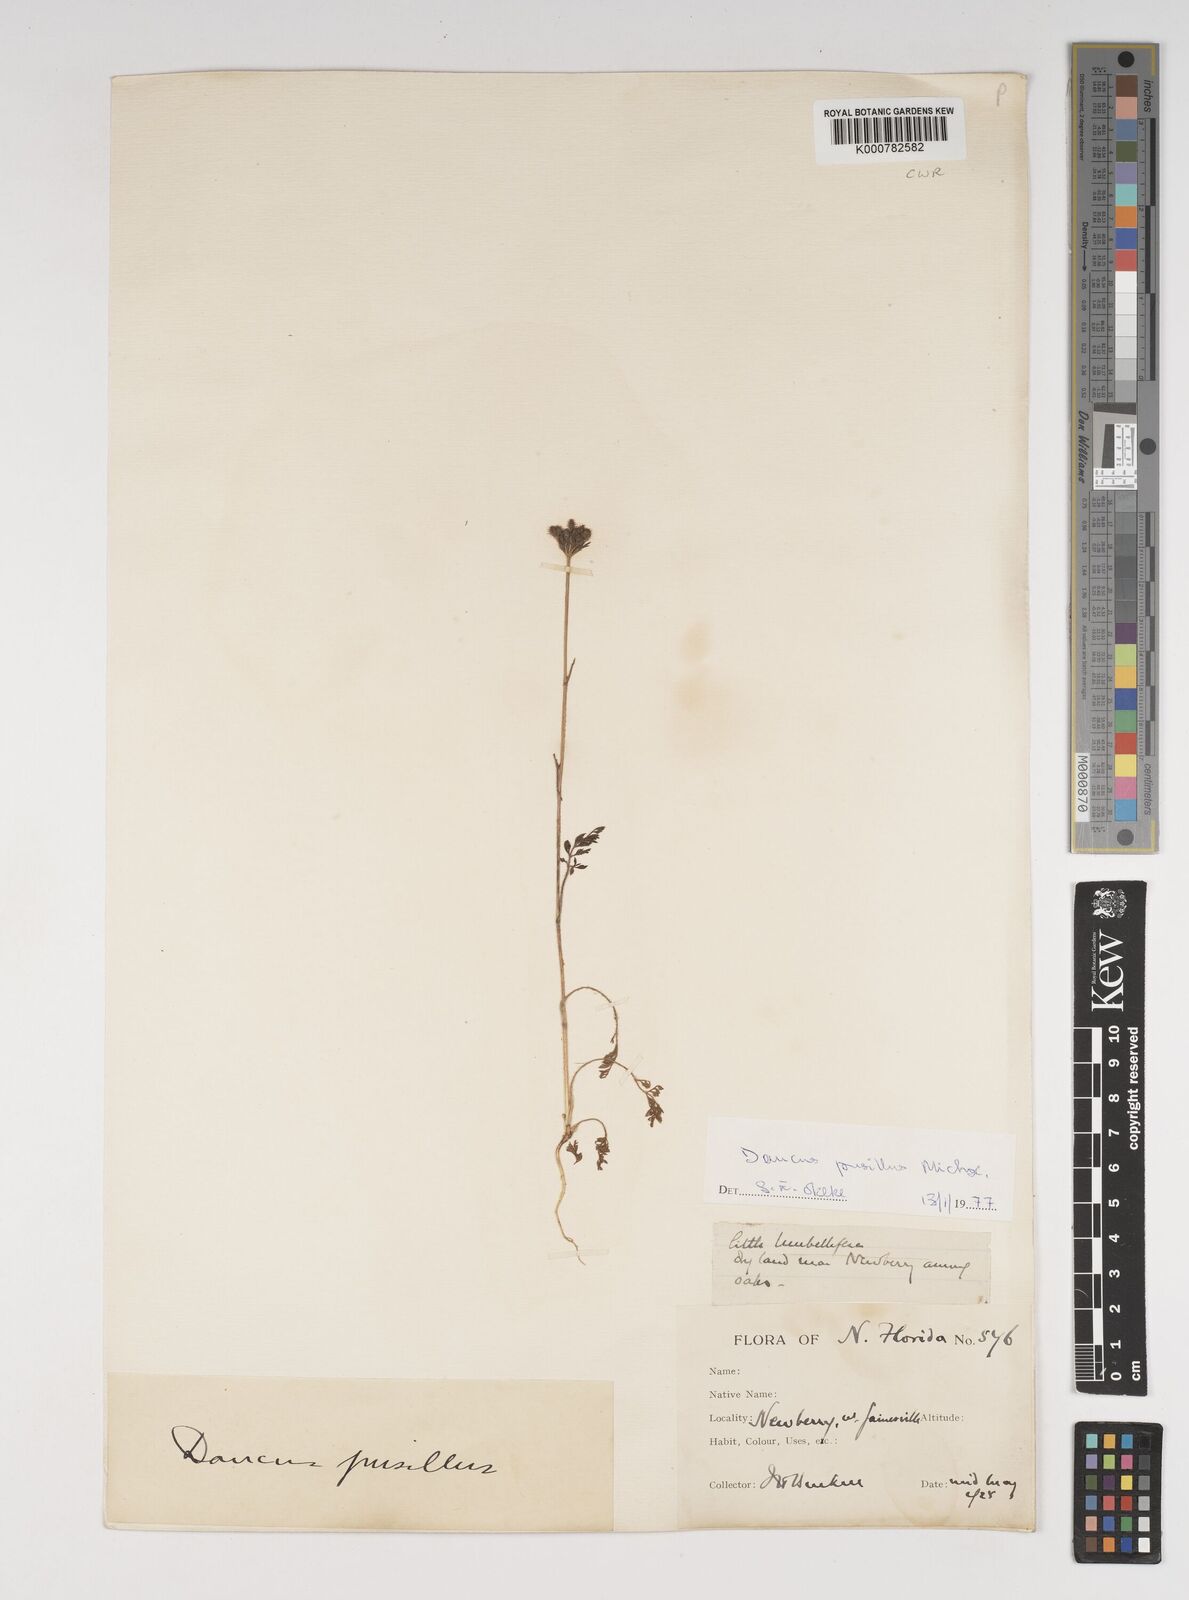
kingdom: Plantae
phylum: Tracheophyta
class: Magnoliopsida
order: Apiales
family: Apiaceae
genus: Daucus
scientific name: Daucus pusillus
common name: Southwest wild carrot
